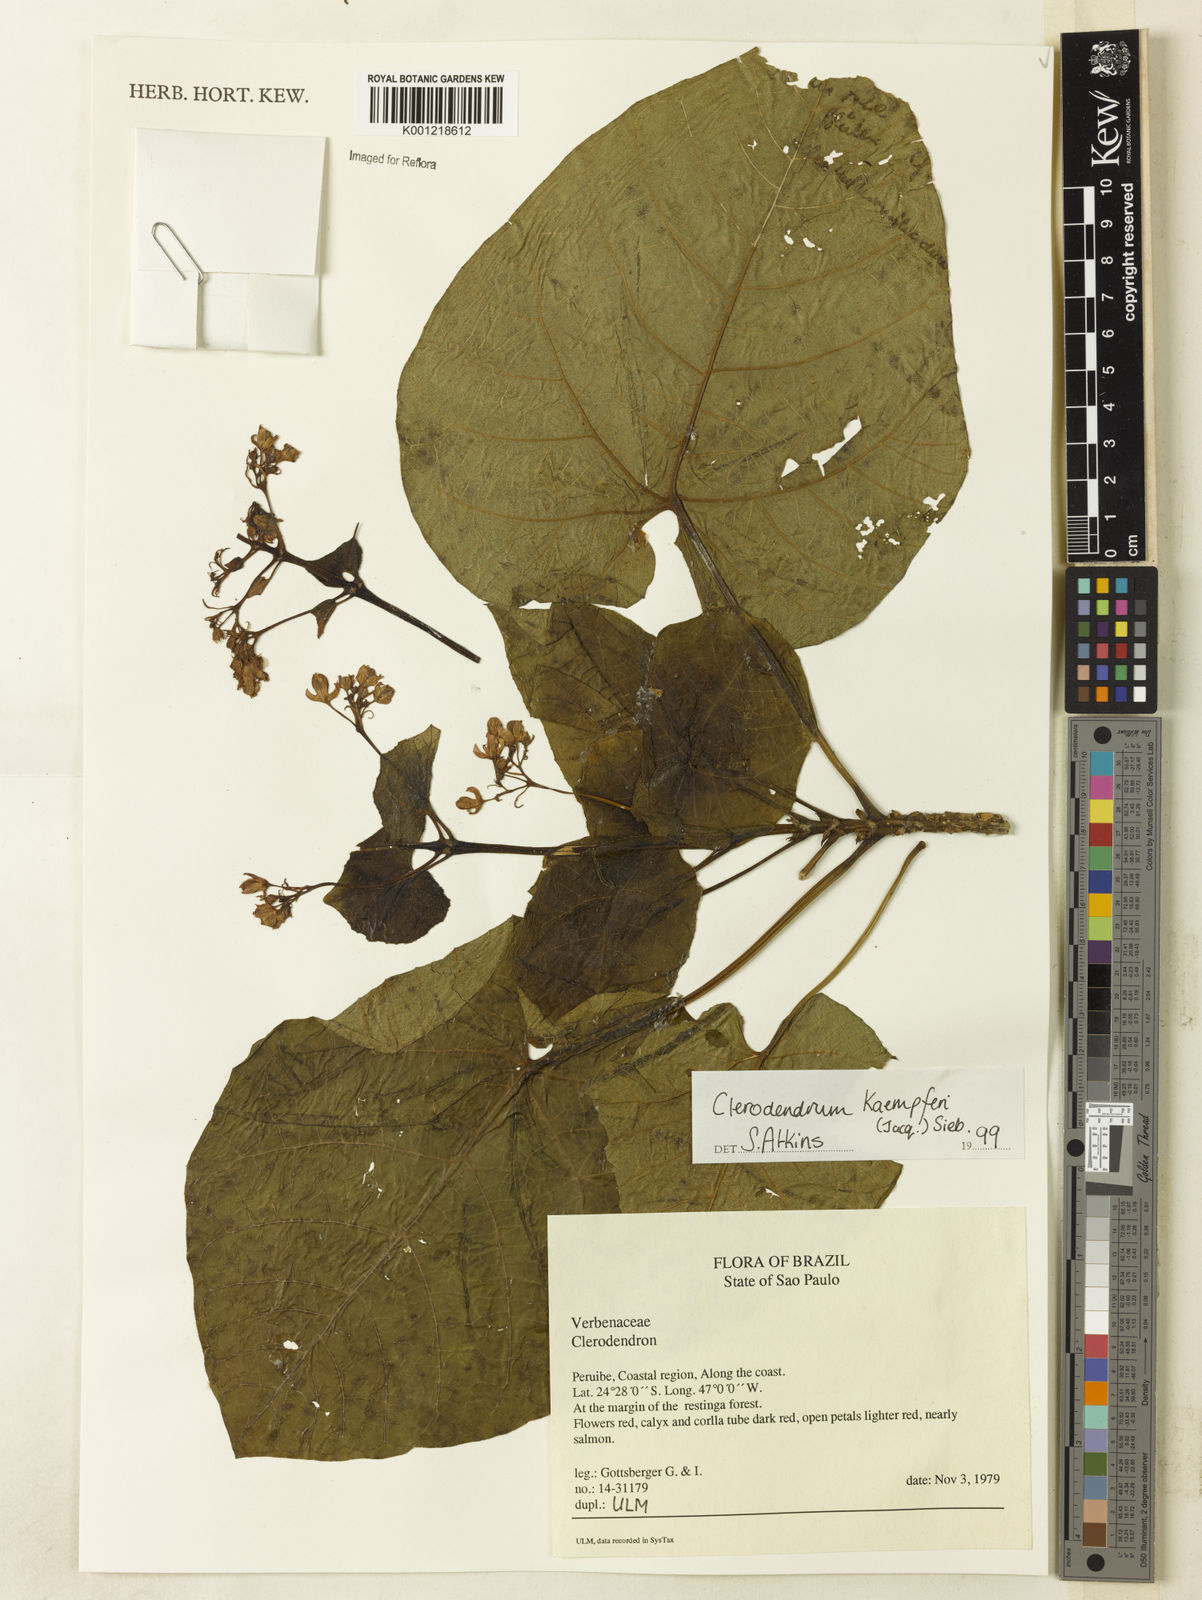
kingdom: Plantae
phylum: Tracheophyta
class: Magnoliopsida
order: Lamiales
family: Lamiaceae
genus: Clerodendrum
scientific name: Clerodendrum
